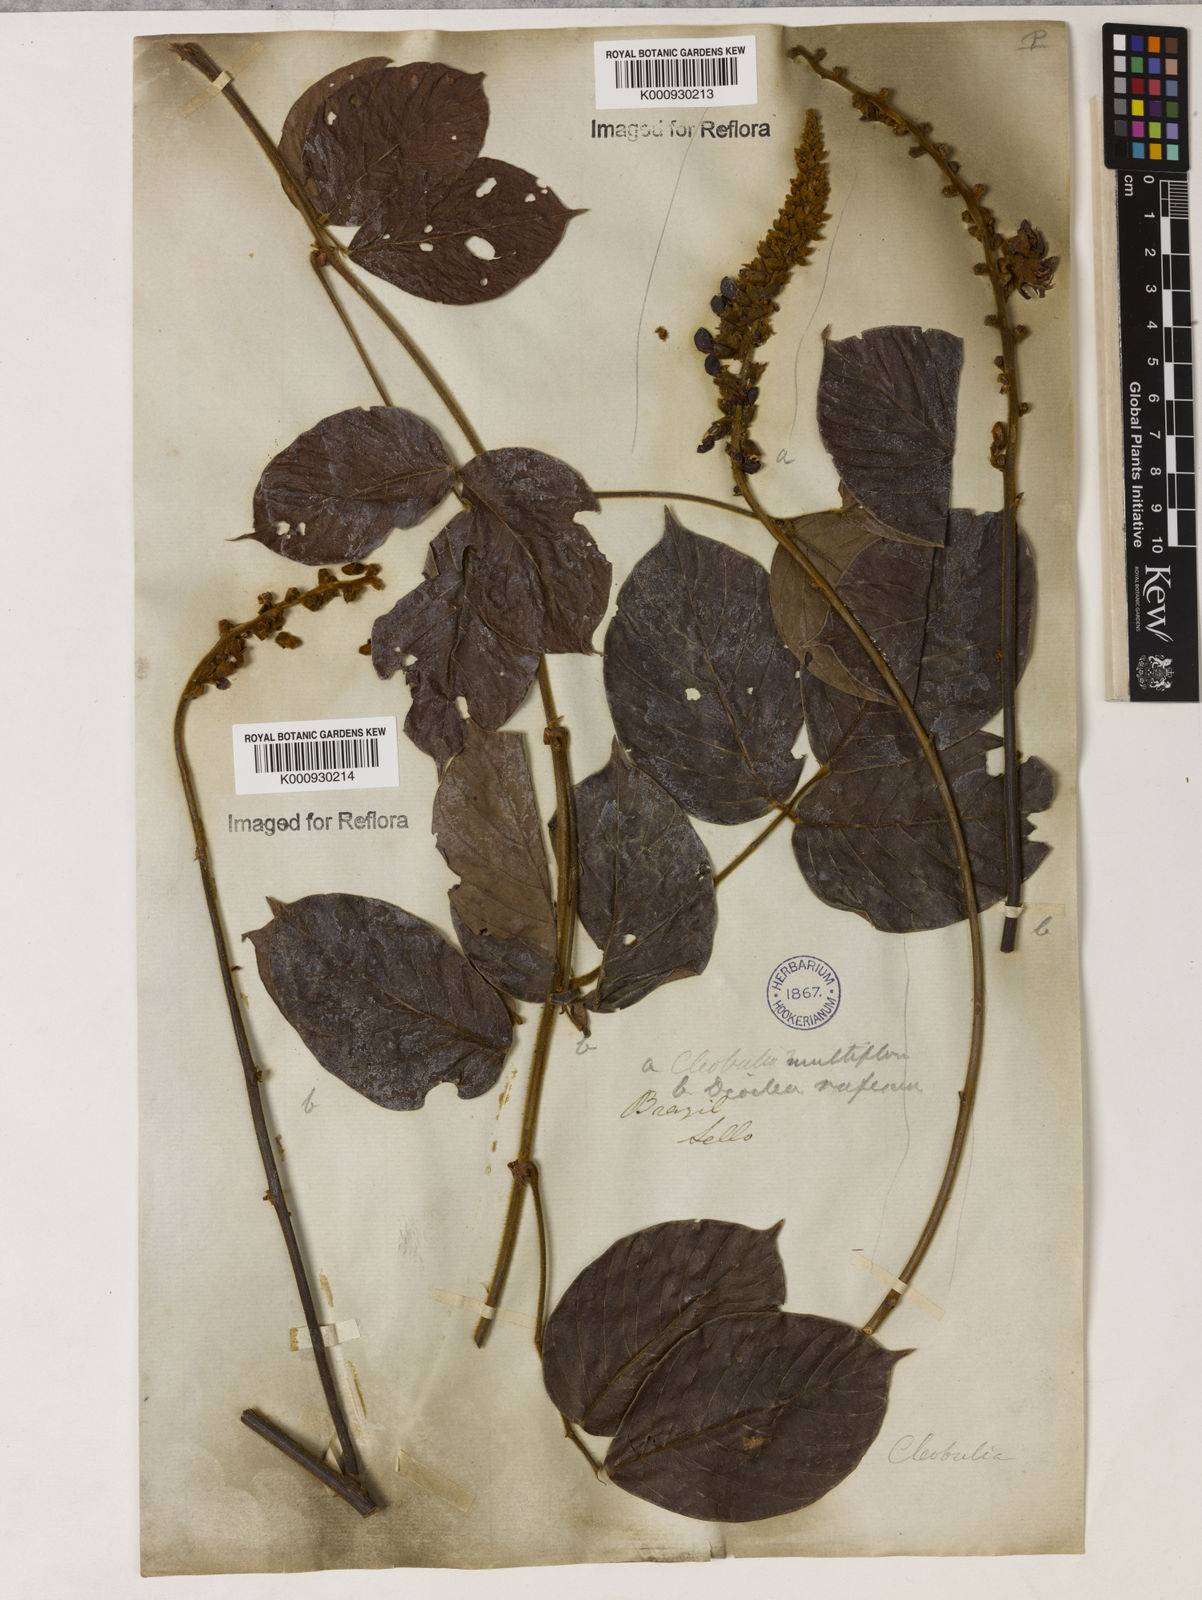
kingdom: Plantae
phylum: Tracheophyta
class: Magnoliopsida
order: Fabales
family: Fabaceae
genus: Cleobulia
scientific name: Cleobulia coccinea
